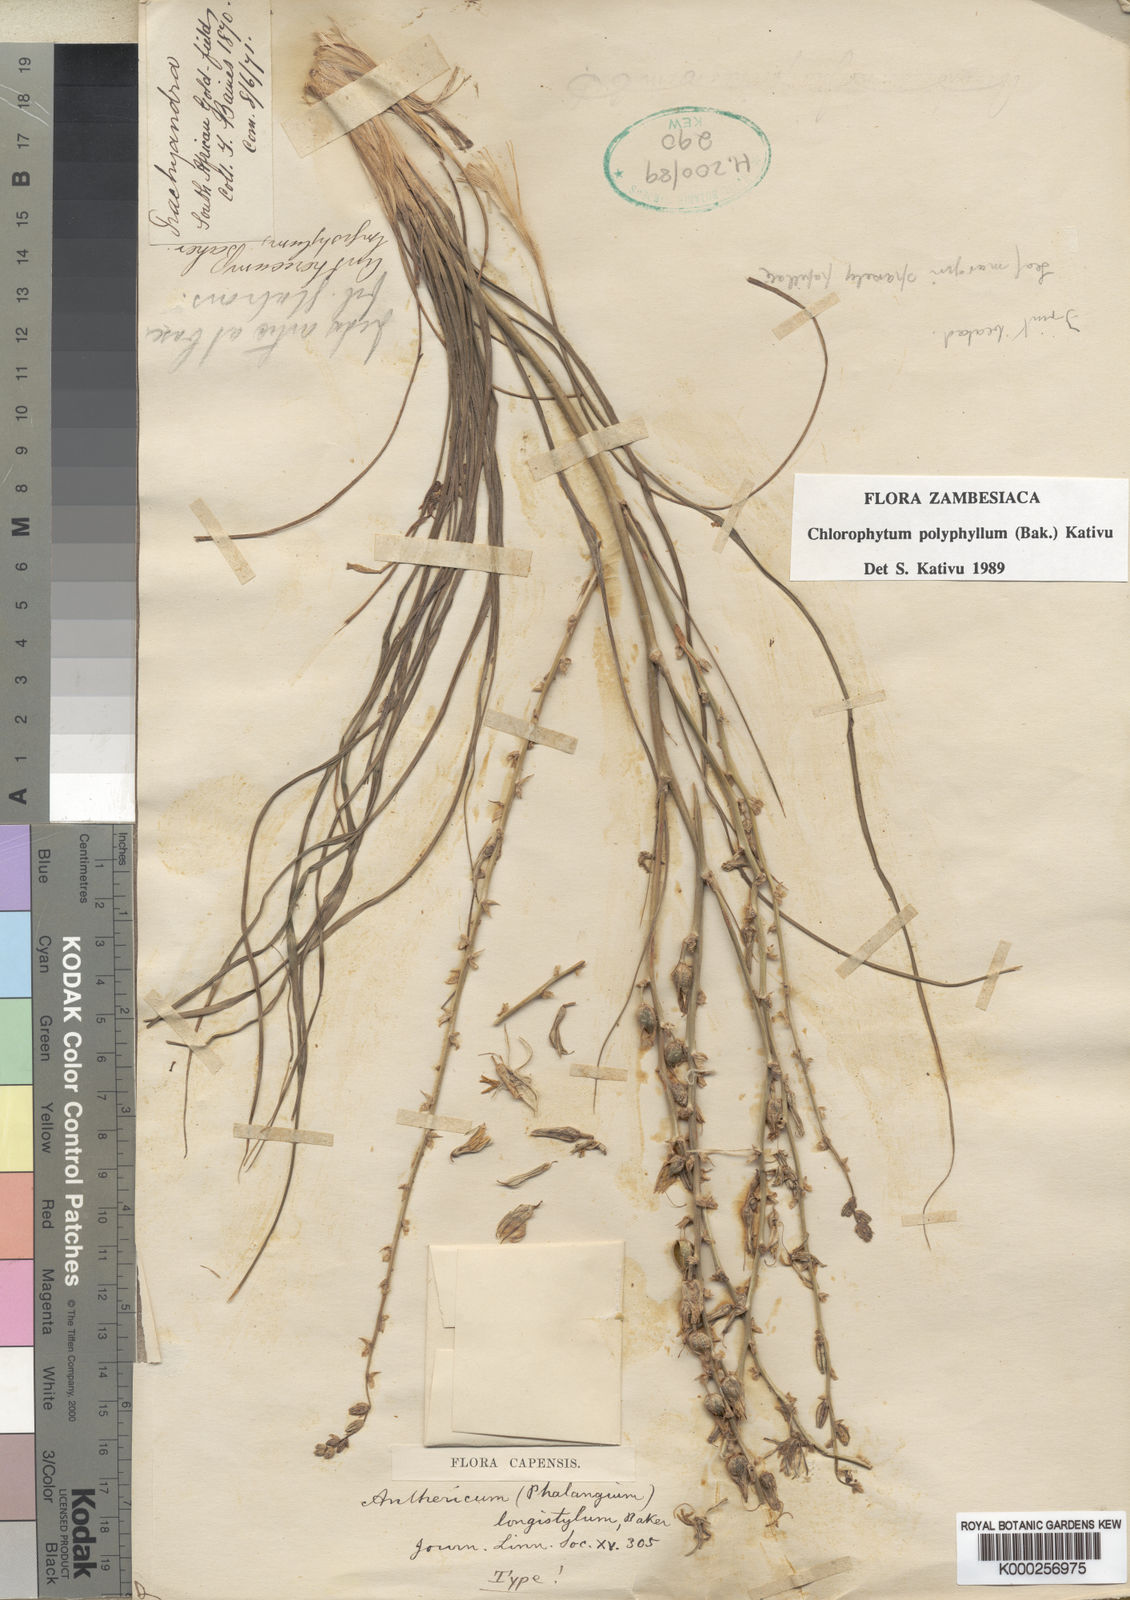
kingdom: Plantae
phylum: Tracheophyta
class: Liliopsida
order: Asparagales
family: Asparagaceae
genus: Chlorophytum
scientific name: Chlorophytum recurvifolium
